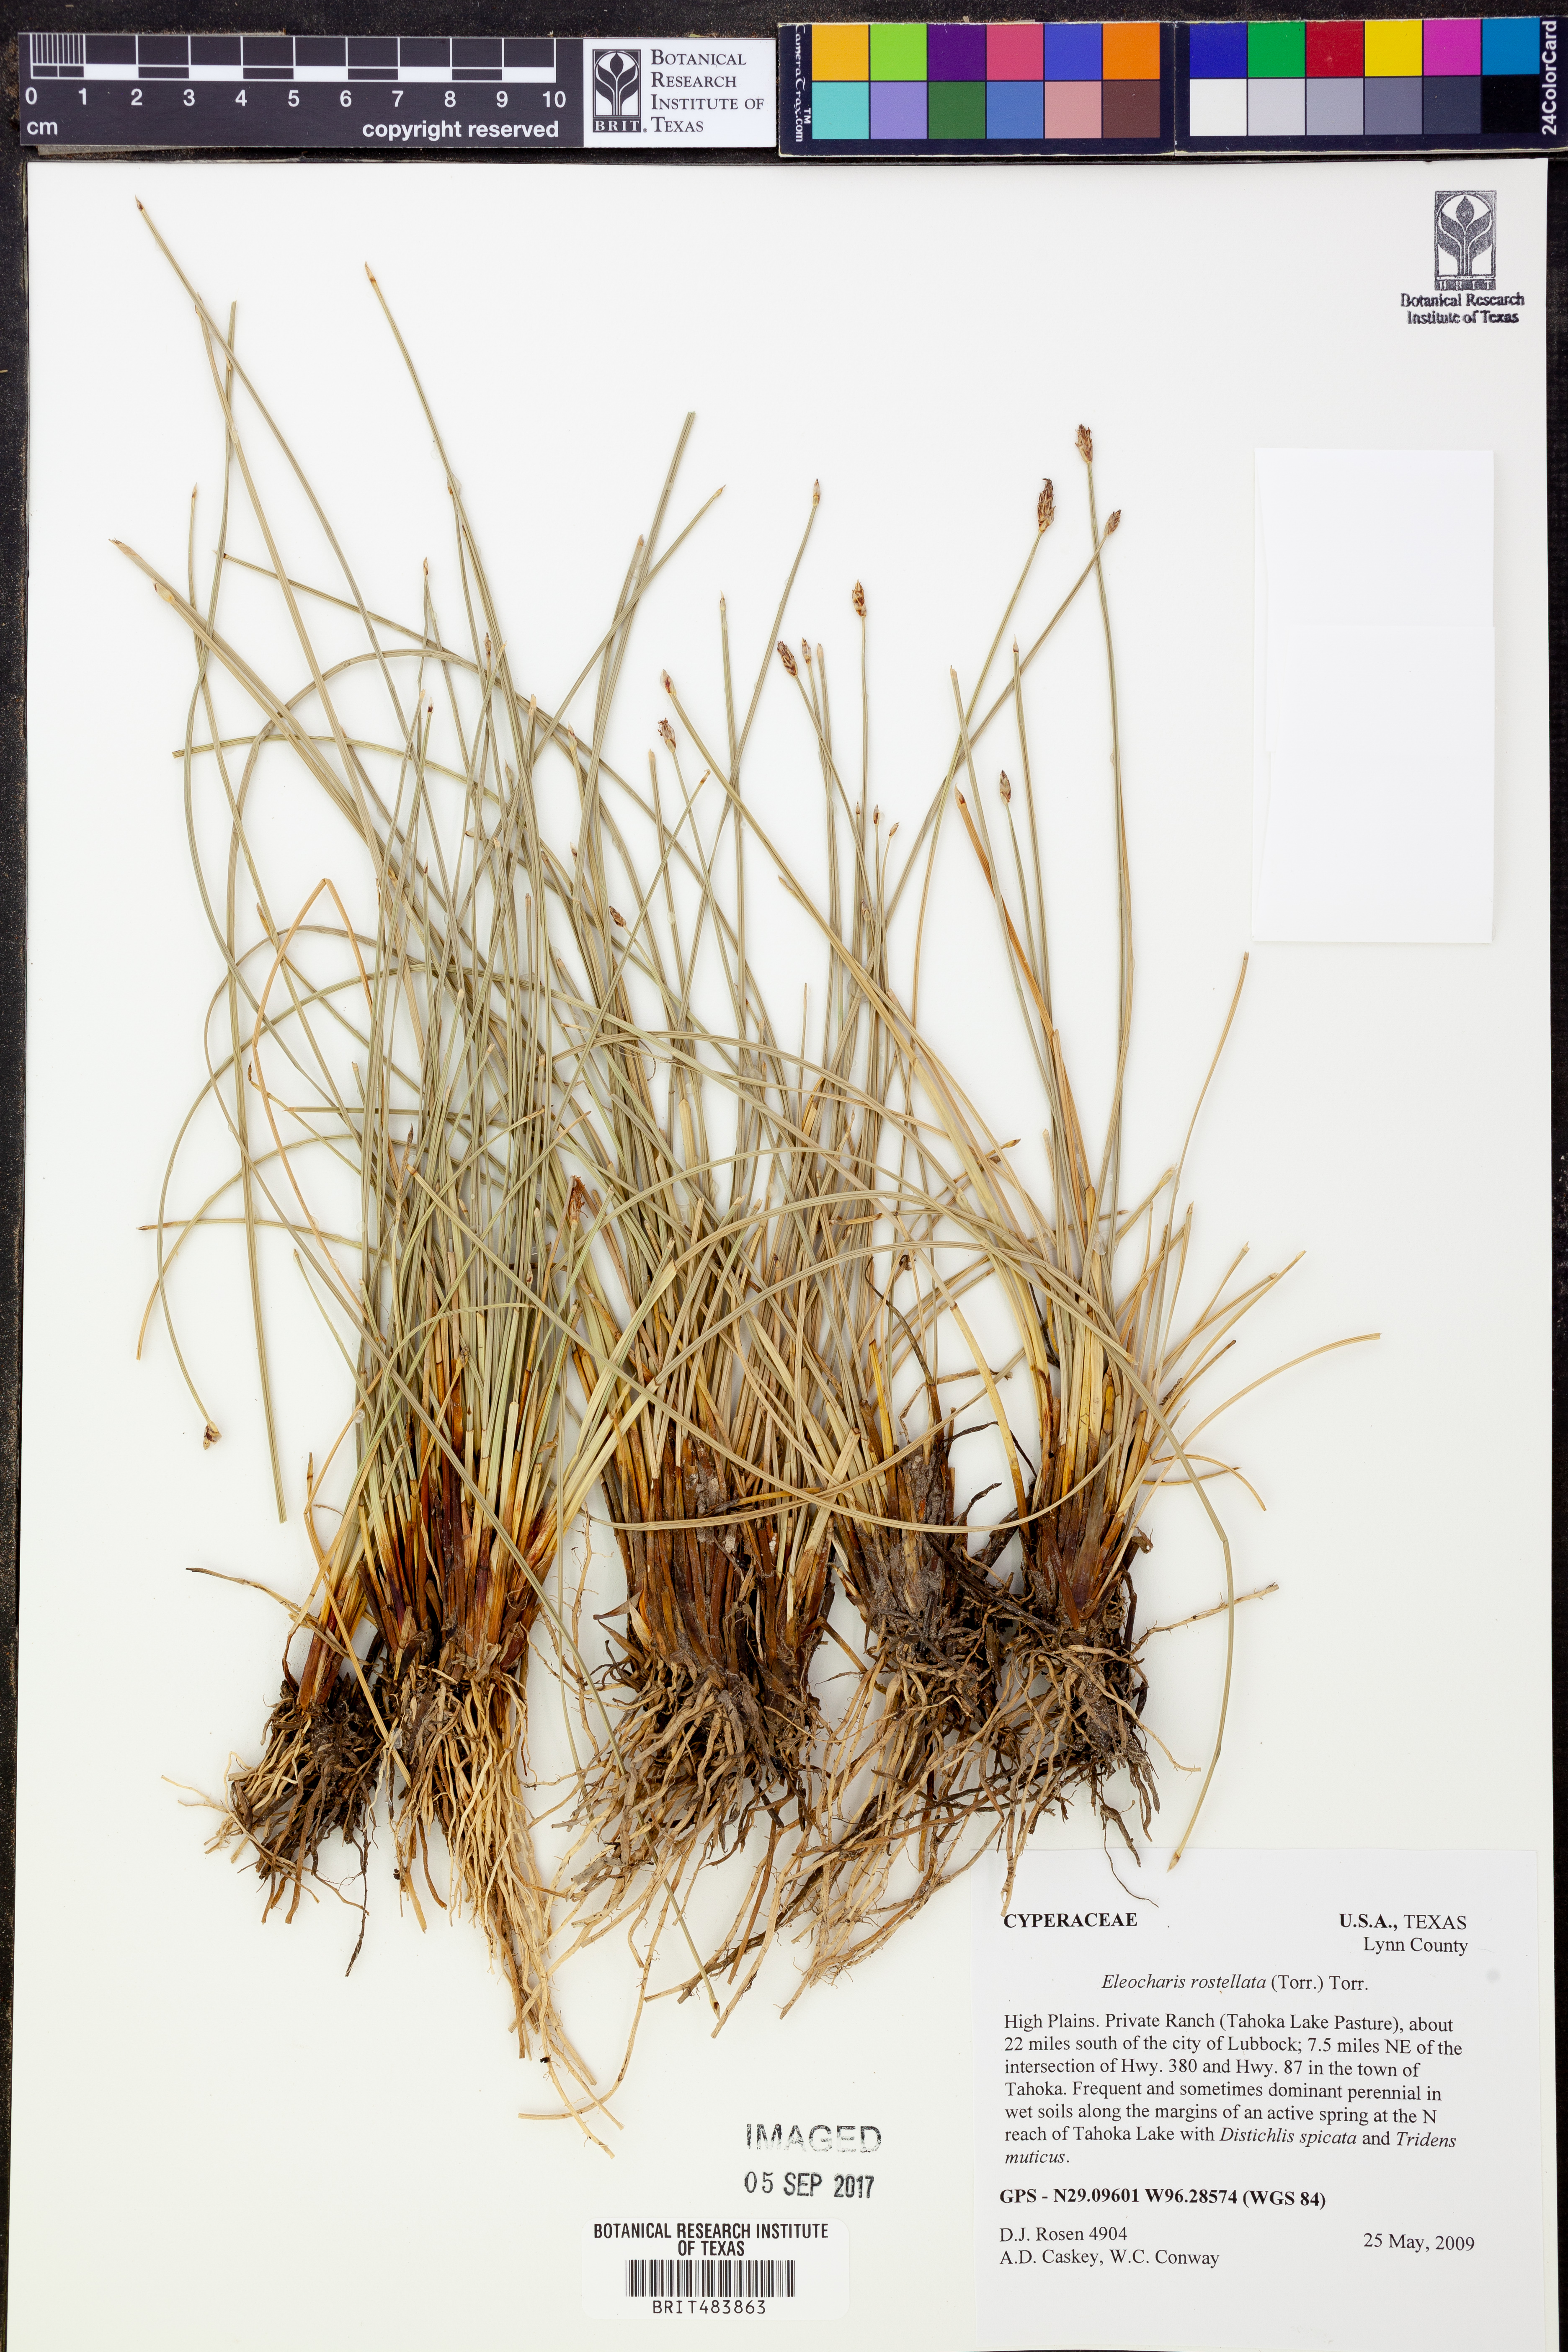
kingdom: Plantae
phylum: Tracheophyta
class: Liliopsida
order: Poales
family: Cyperaceae
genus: Eleocharis
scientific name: Eleocharis rostellata
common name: Walking sedge
